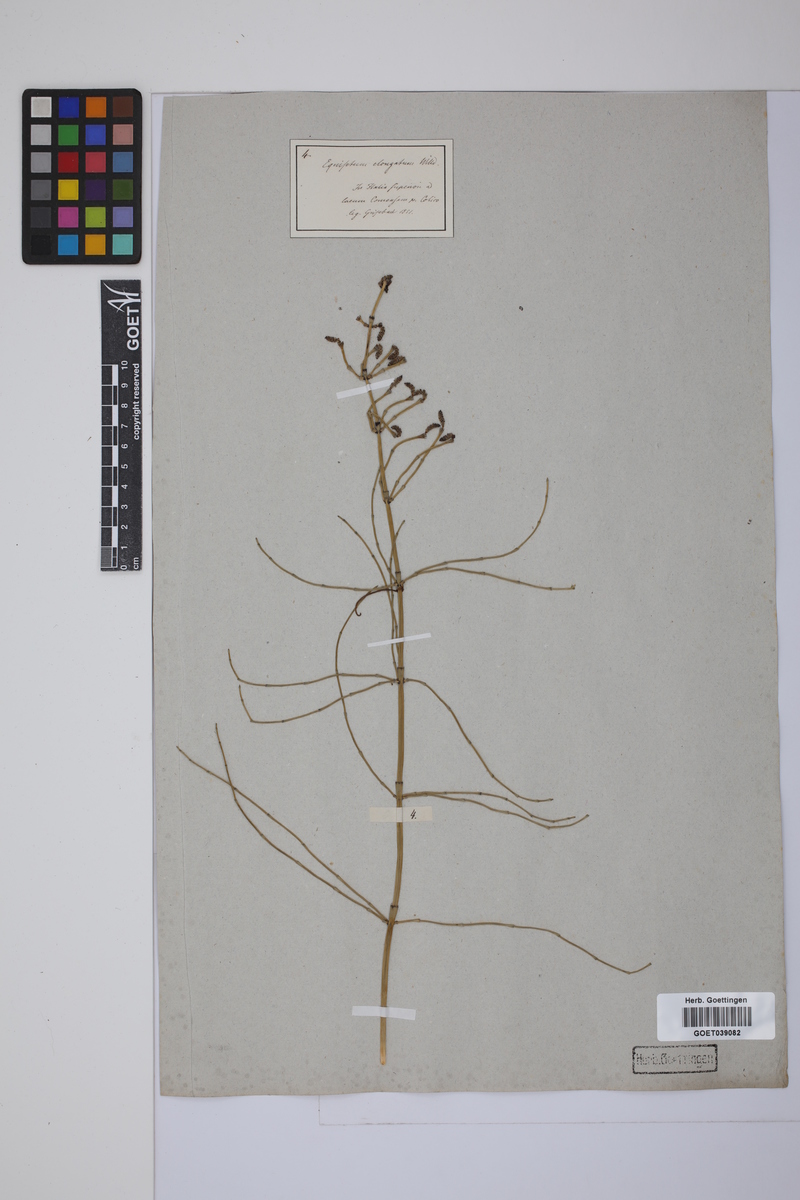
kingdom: Plantae
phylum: Tracheophyta
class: Polypodiopsida
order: Equisetales
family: Equisetaceae
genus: Equisetum
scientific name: Equisetum giganteum
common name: Giant horsetail
